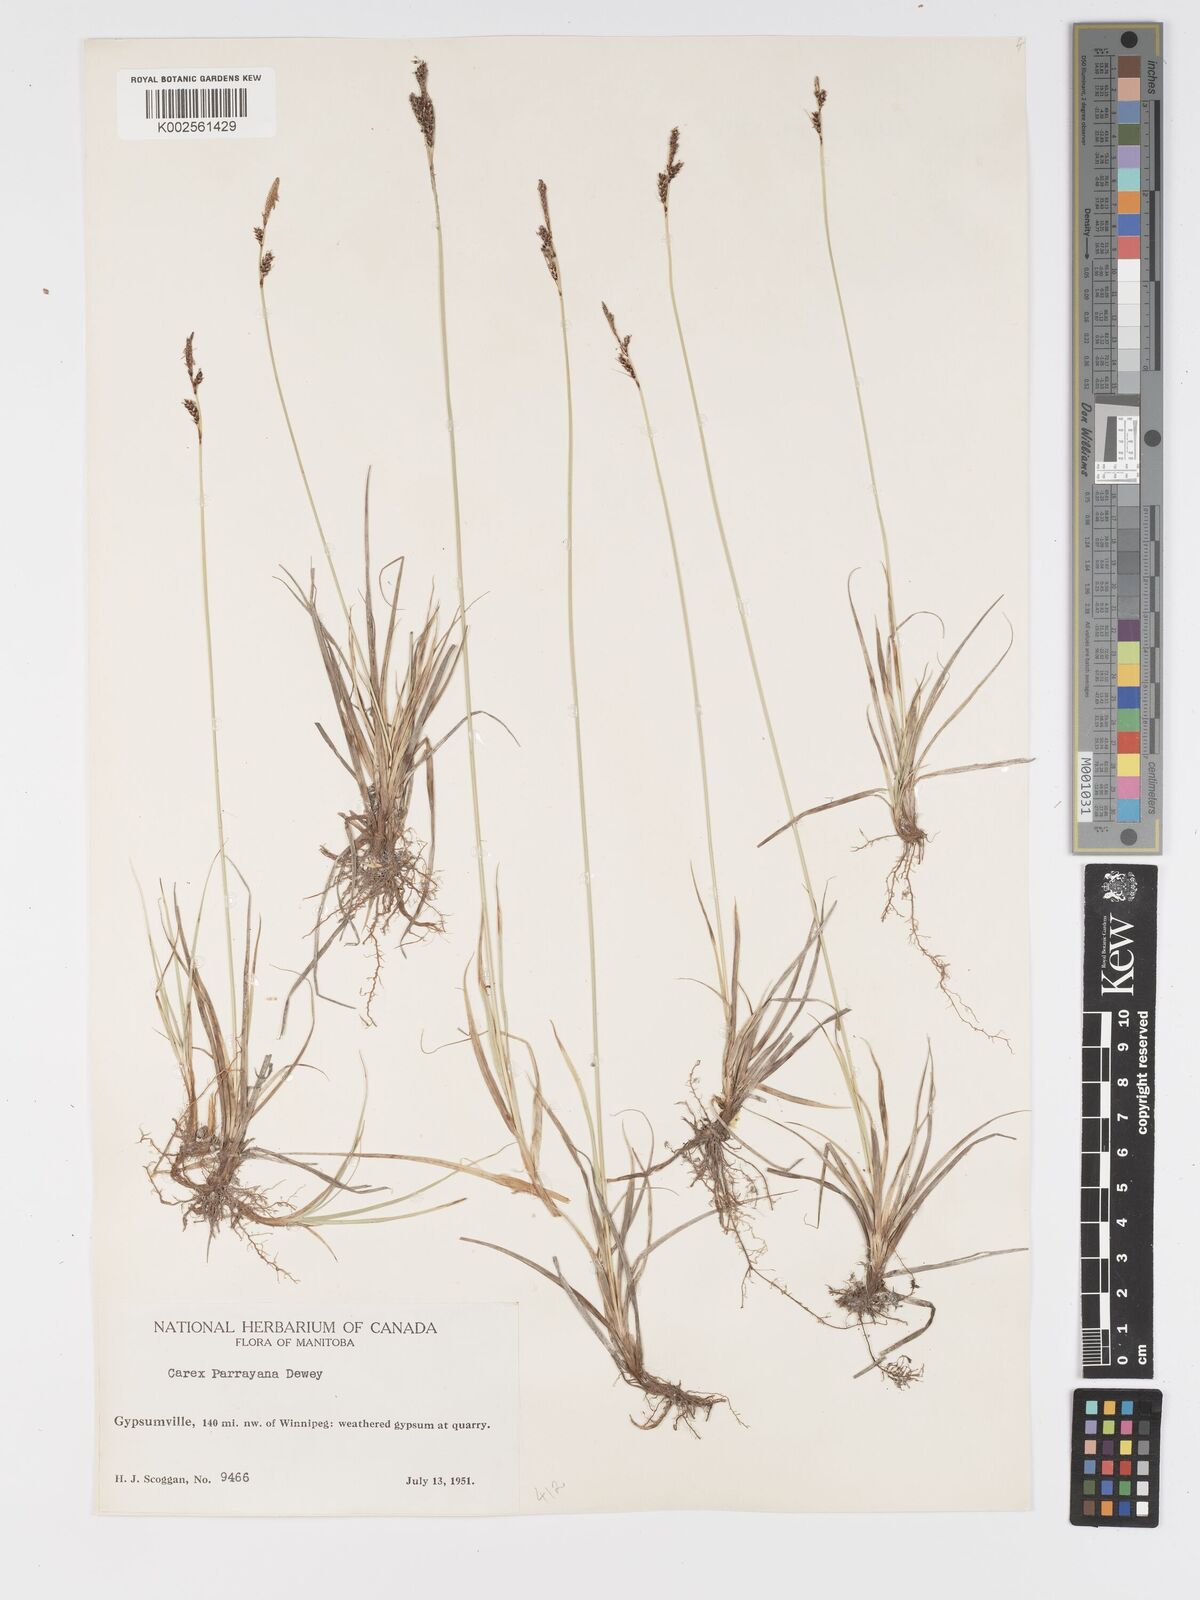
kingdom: Plantae
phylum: Tracheophyta
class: Liliopsida
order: Poales
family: Cyperaceae
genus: Carex
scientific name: Carex parryana
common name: Parry's sedge
